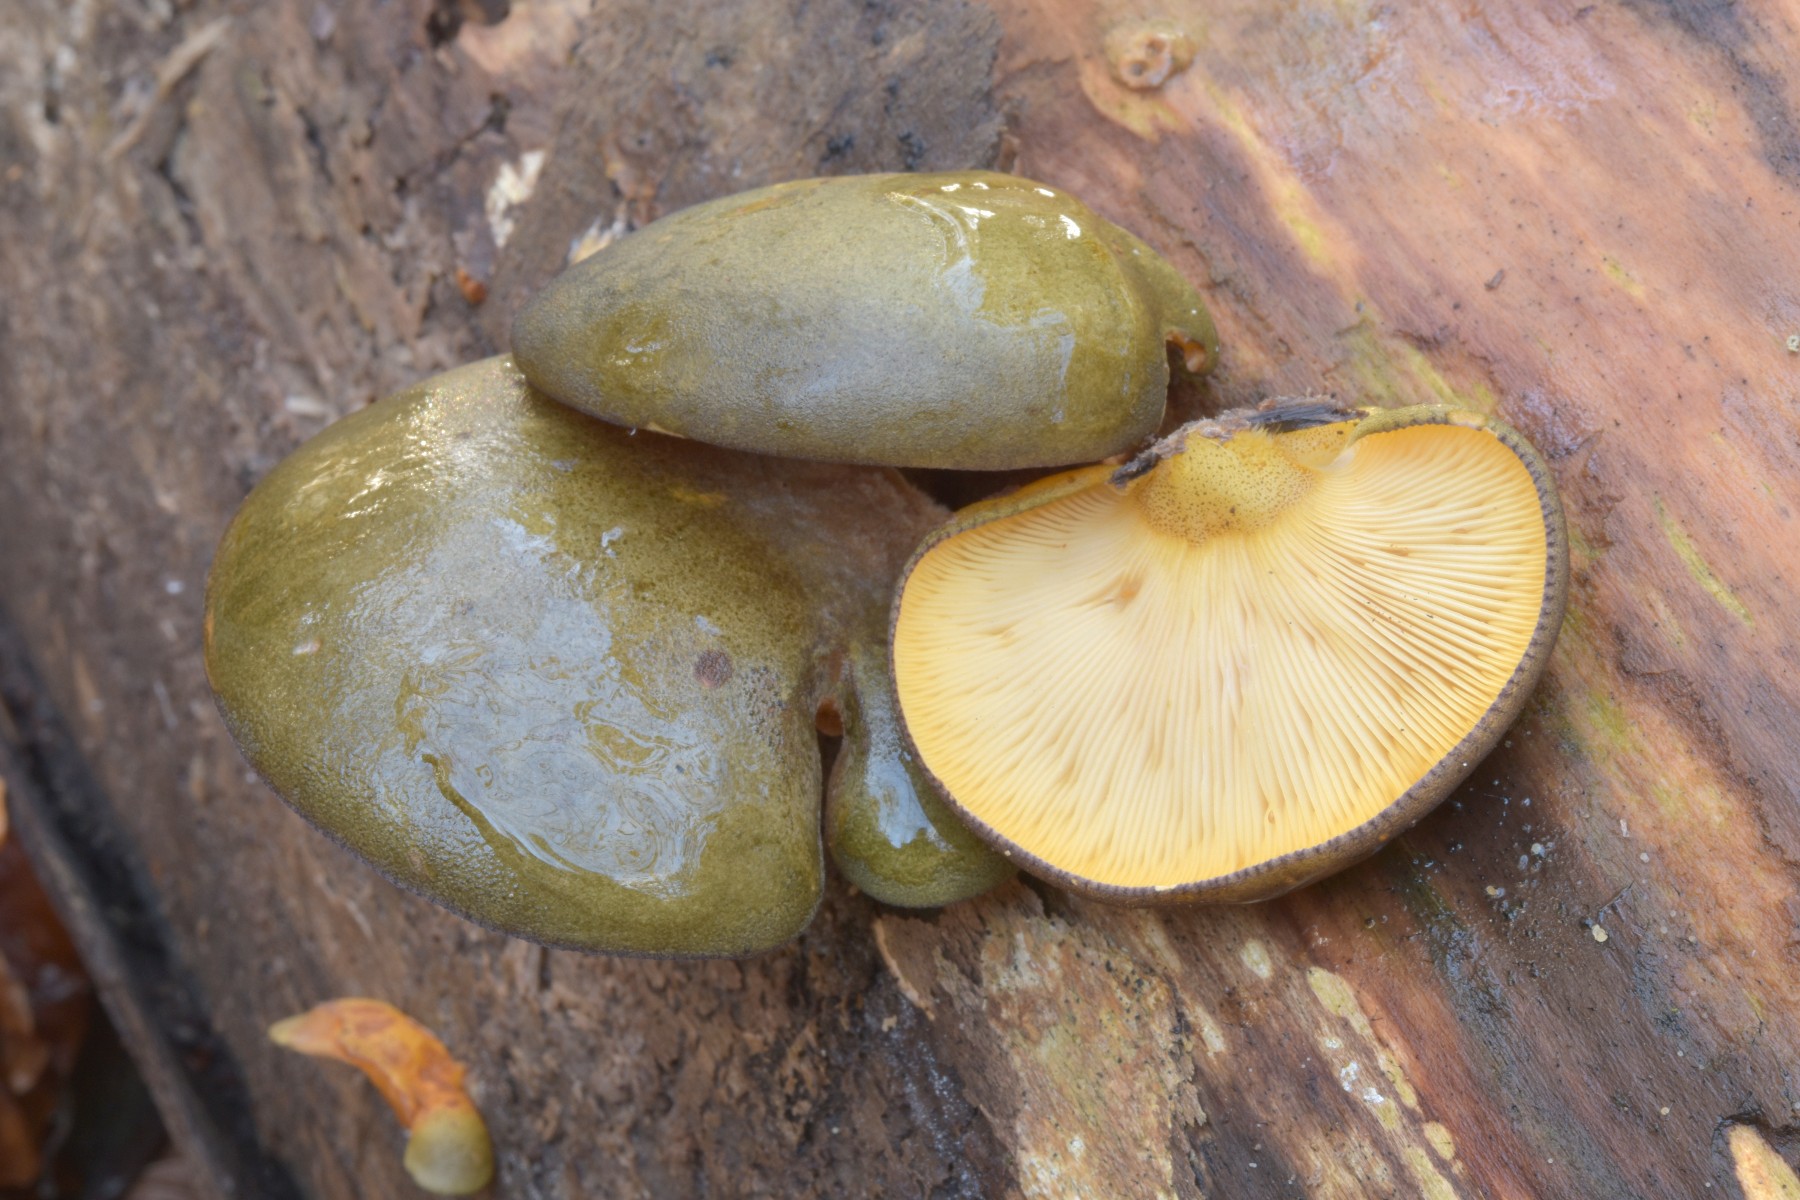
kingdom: Fungi
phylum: Basidiomycota
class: Agaricomycetes
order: Agaricales
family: Sarcomyxaceae
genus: Sarcomyxa
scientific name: Sarcomyxa serotina
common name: gummihat
